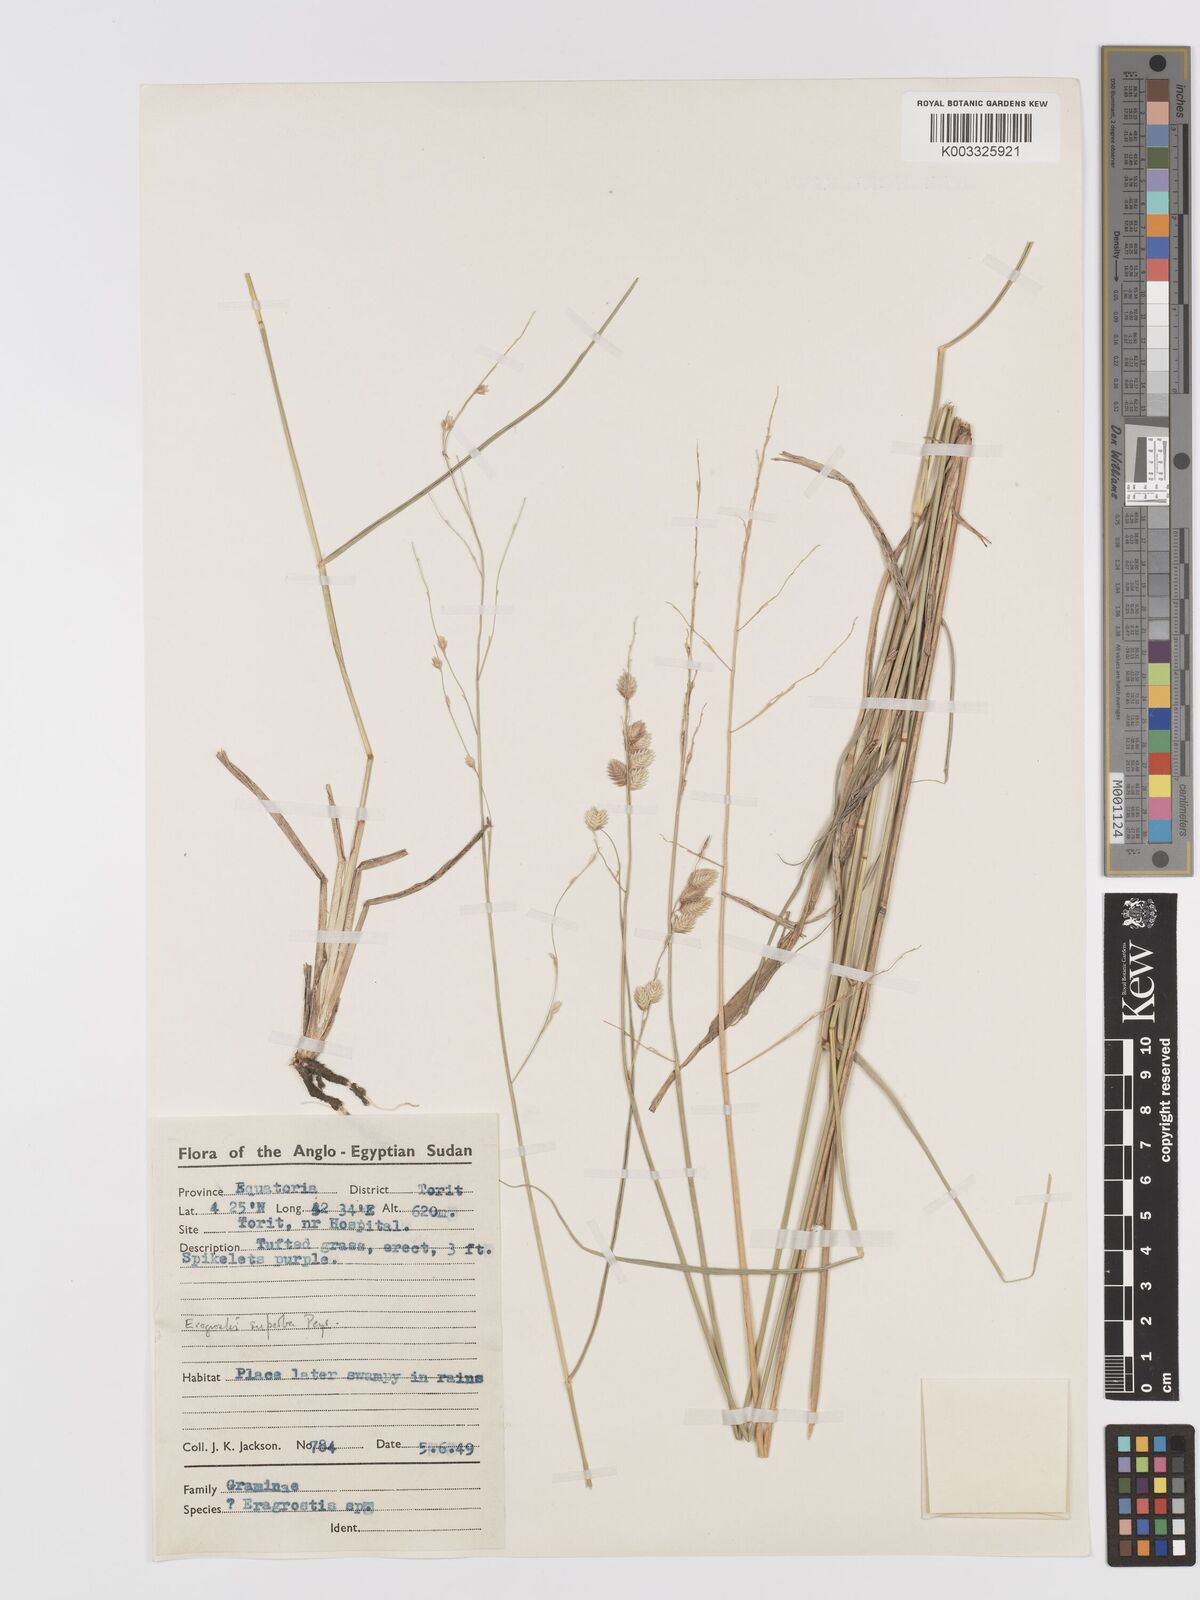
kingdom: Plantae
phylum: Tracheophyta
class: Liliopsida
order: Poales
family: Poaceae
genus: Eragrostis
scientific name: Eragrostis superba
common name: Wilman lovegrass
